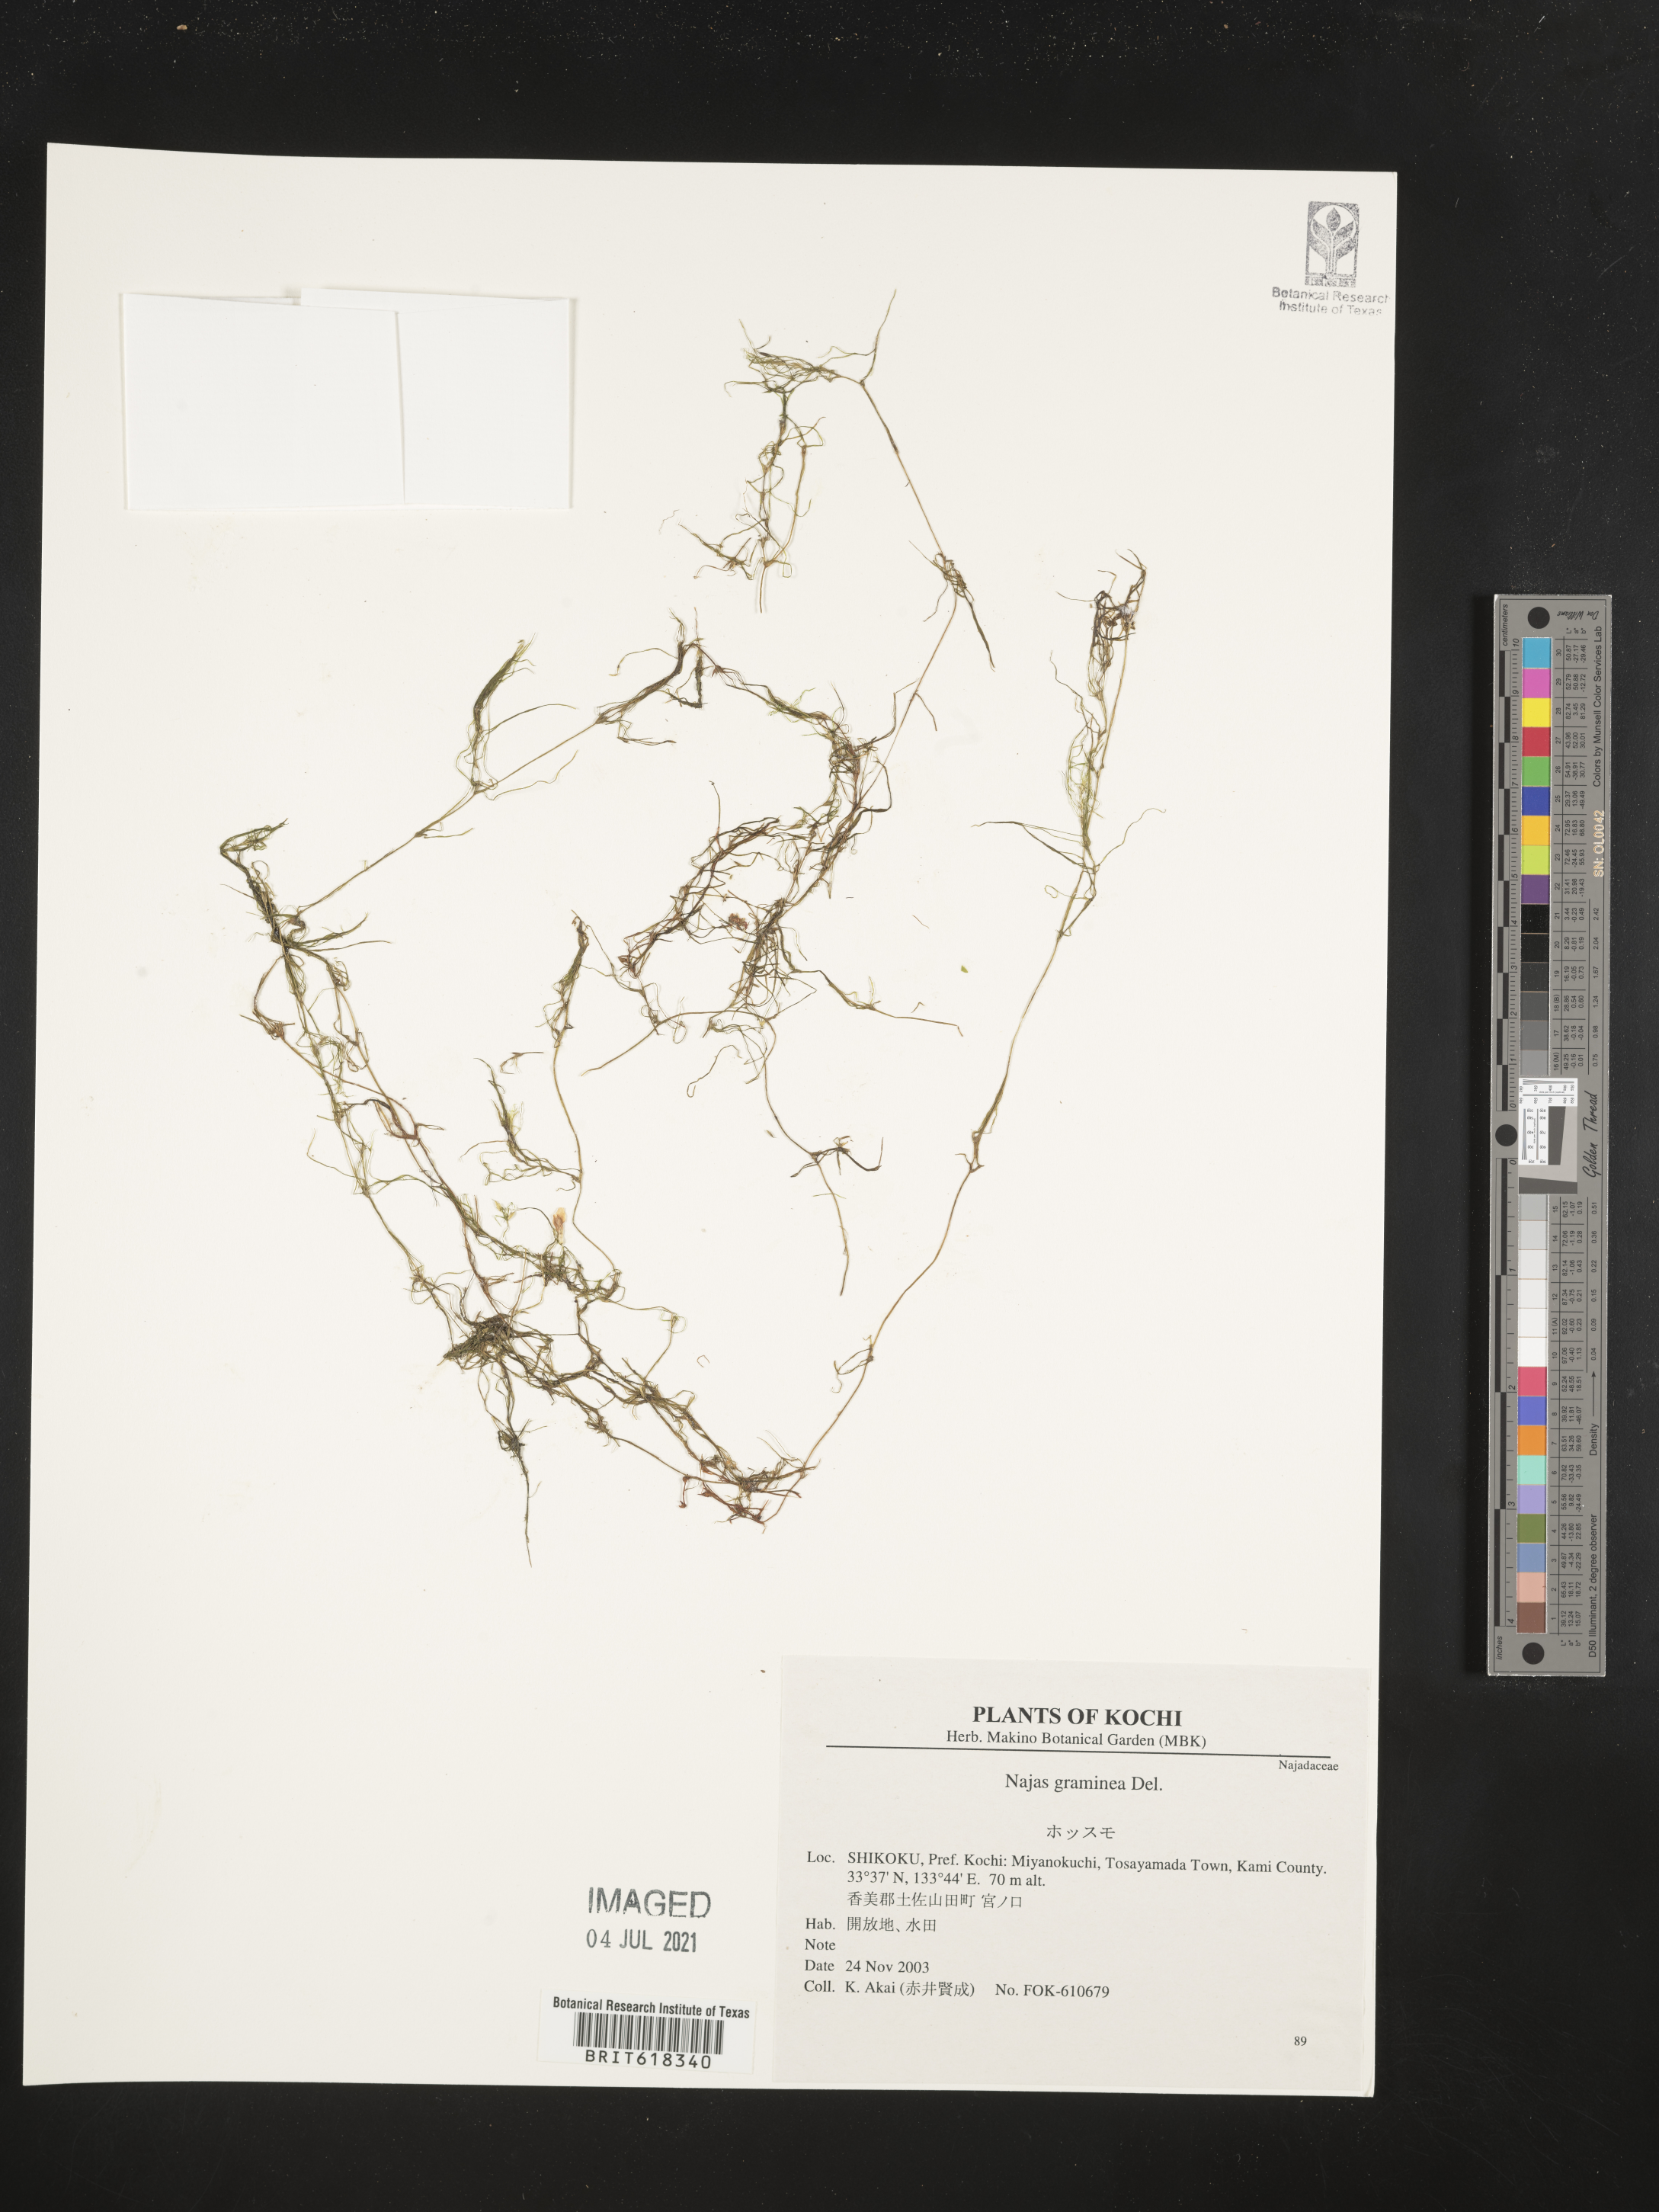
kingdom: Plantae
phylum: Tracheophyta
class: Liliopsida
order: Alismatales
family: Hydrocharitaceae
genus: Najas
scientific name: Najas graminea
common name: Ricefield waternymph
